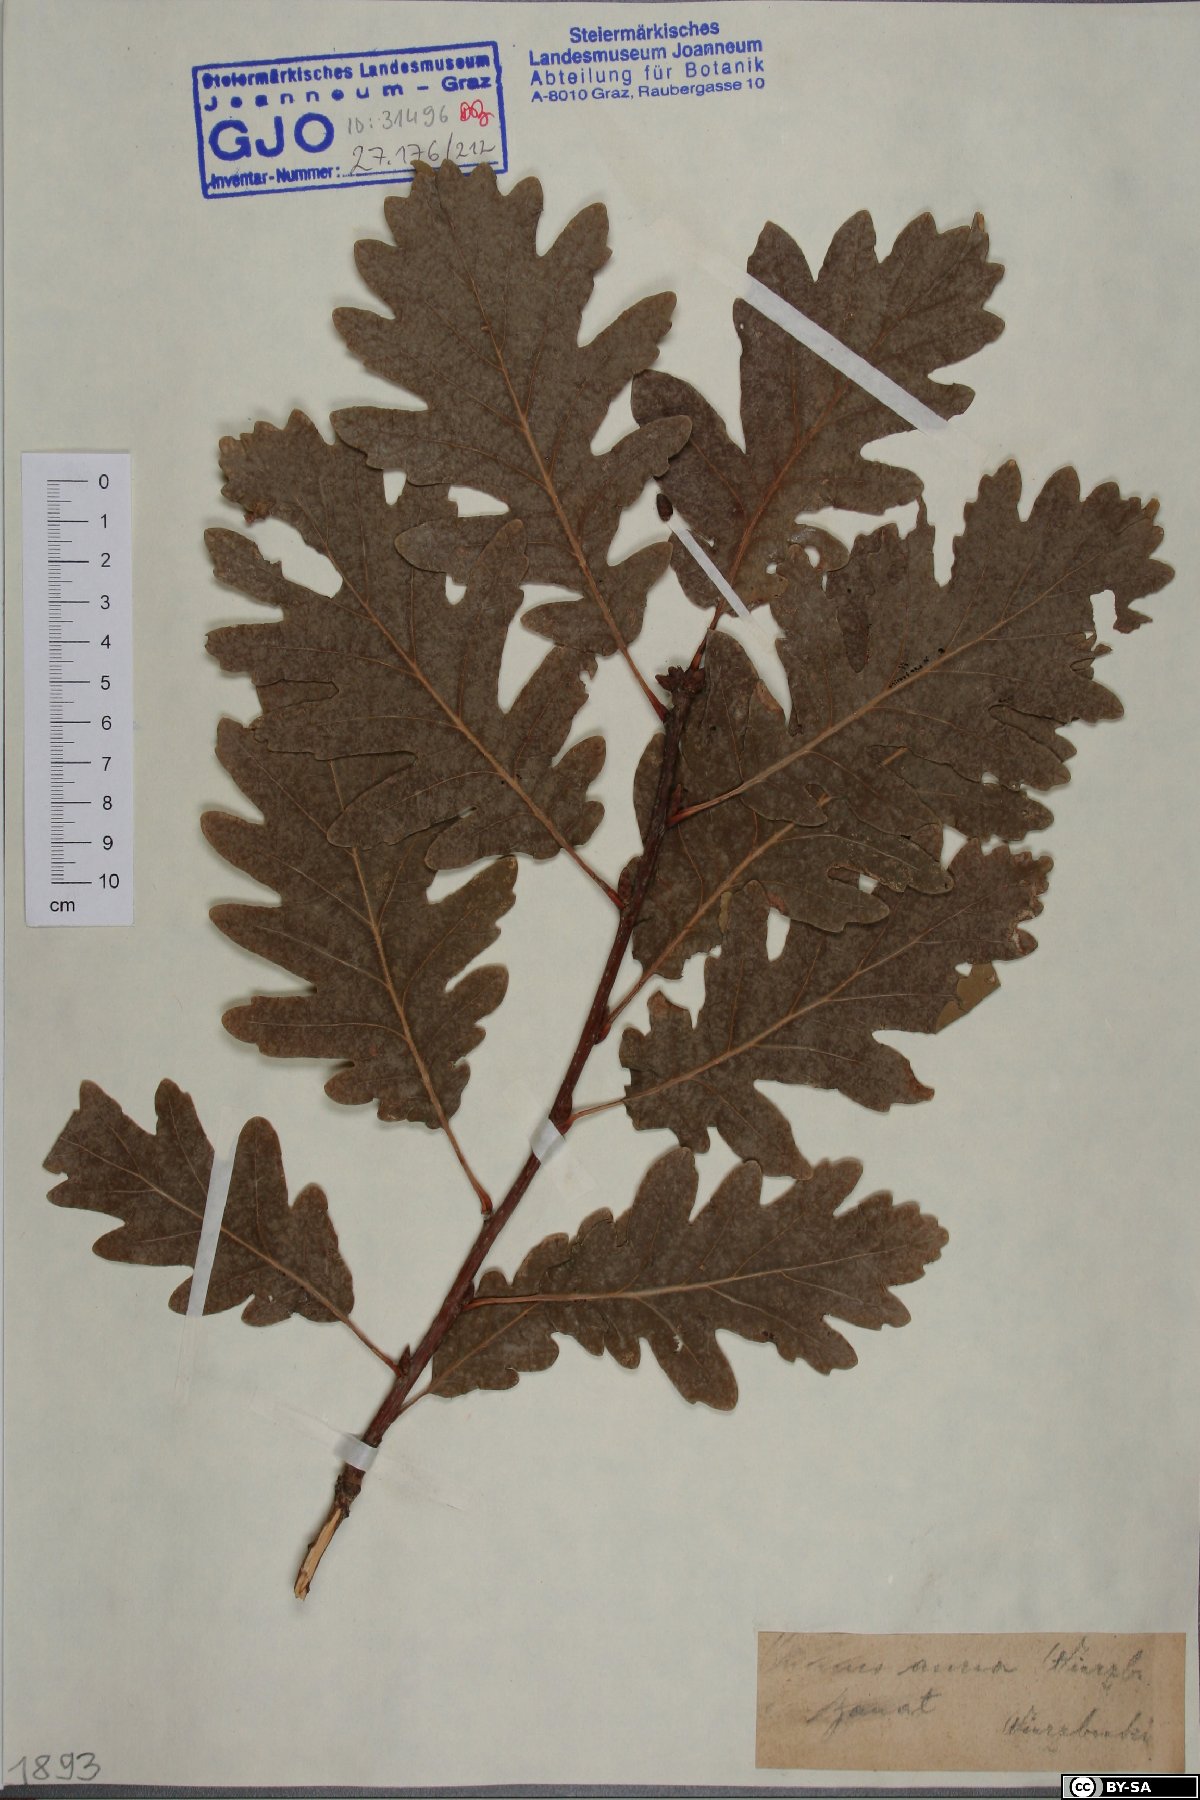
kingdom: Plantae
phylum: Tracheophyta
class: Magnoliopsida
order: Fagales
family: Fagaceae
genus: Quercus
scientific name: Quercus dalechampii
